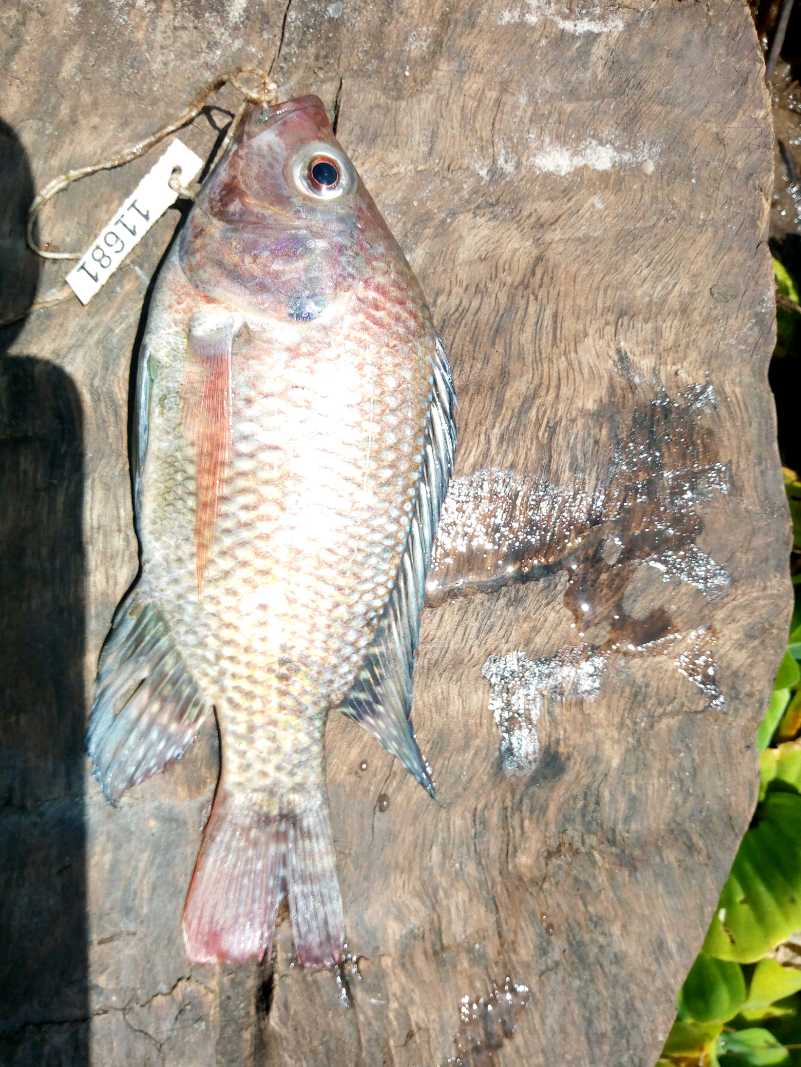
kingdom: Animalia
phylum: Chordata
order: Perciformes
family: Cichlidae
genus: Oreochromis
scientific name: Oreochromis spilurus
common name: Sabaki tilapia
